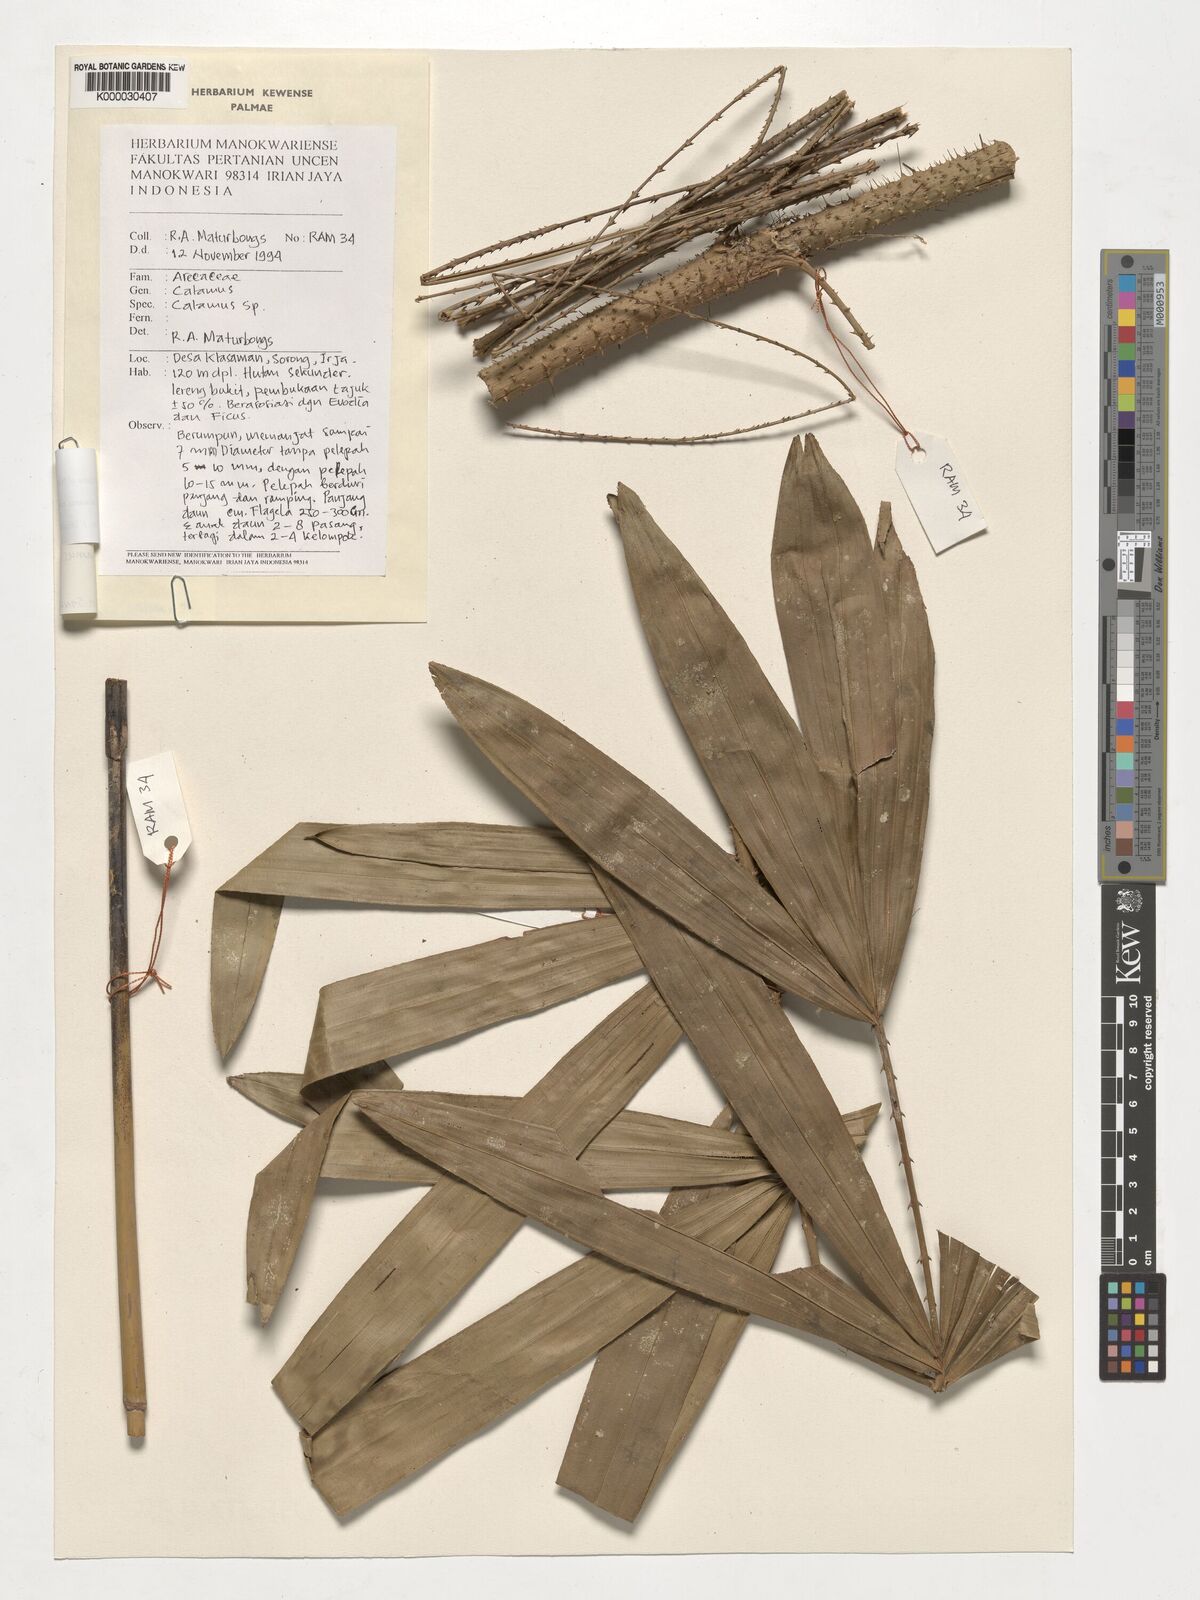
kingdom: Plantae
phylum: Tracheophyta
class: Liliopsida
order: Arecales
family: Arecaceae
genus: Calamus
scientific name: Calamus macrochlamys
